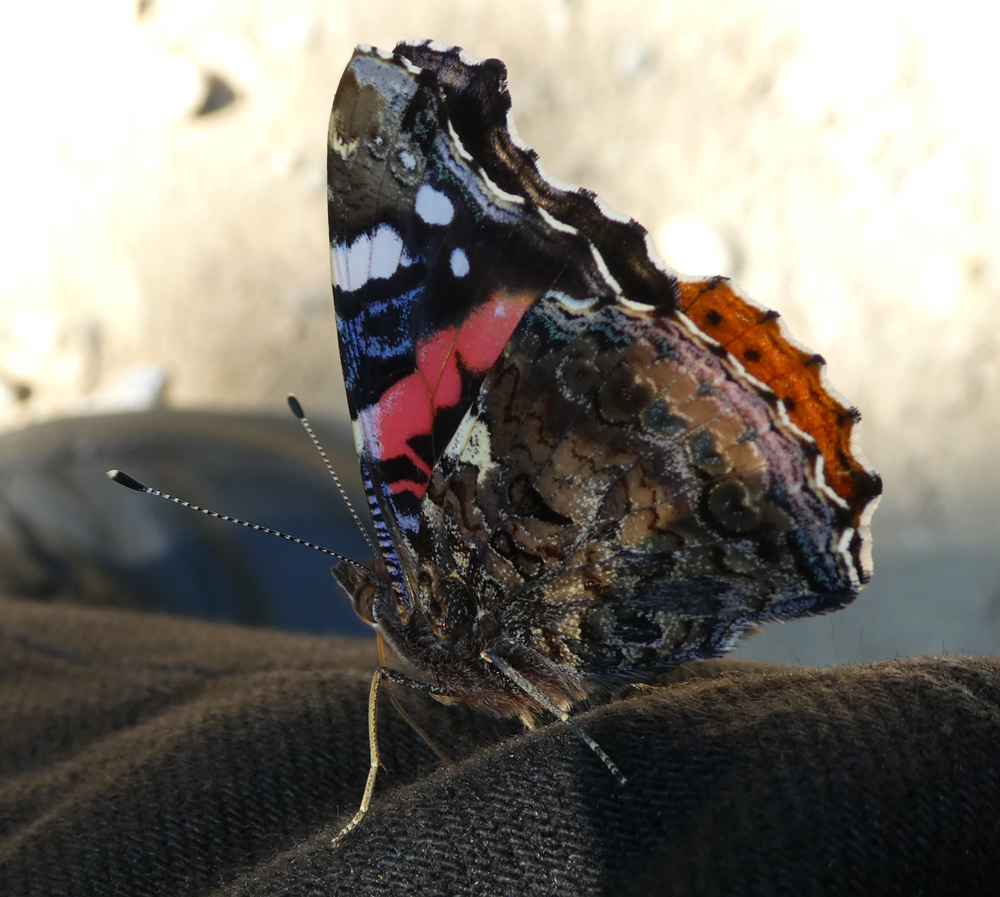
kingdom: Animalia
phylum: Arthropoda
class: Insecta
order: Lepidoptera
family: Nymphalidae
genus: Vanessa
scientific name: Vanessa atalanta
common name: Red admiral
